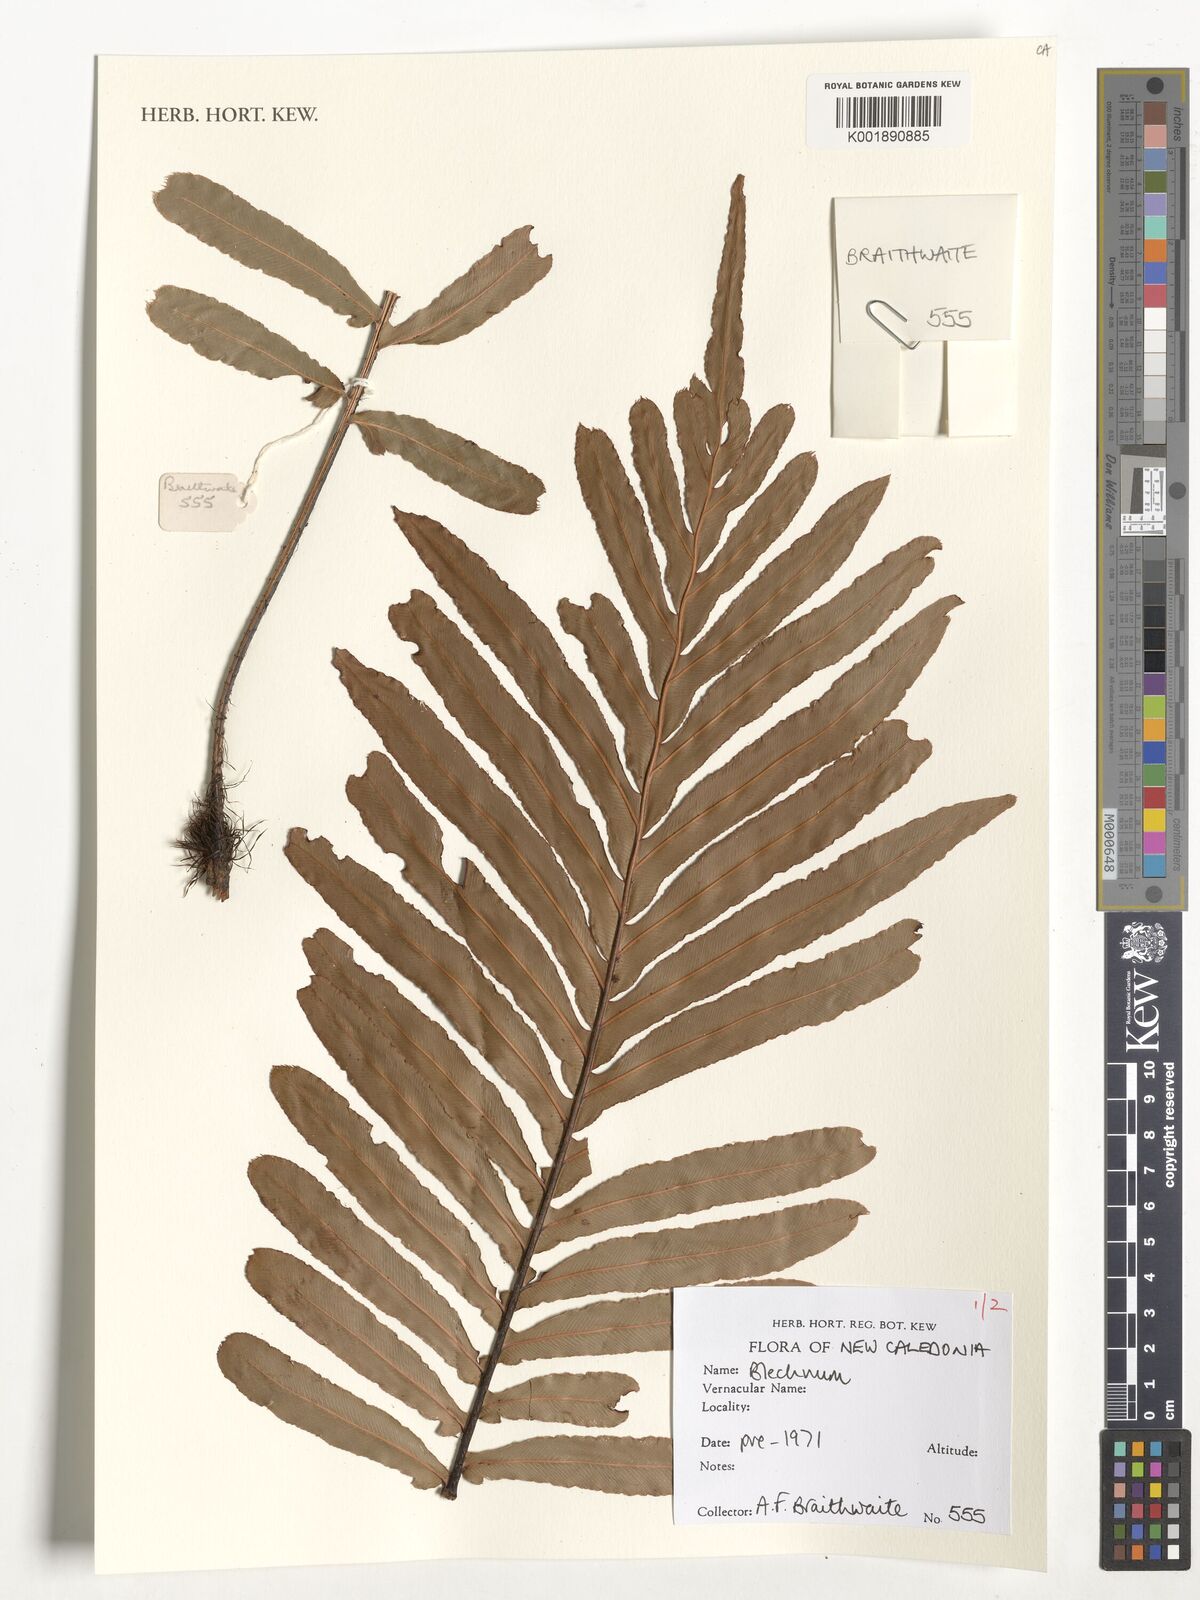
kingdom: Plantae
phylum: Tracheophyta
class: Polypodiopsida
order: Polypodiales
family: Blechnaceae
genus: Blechnum
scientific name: Blechnum
